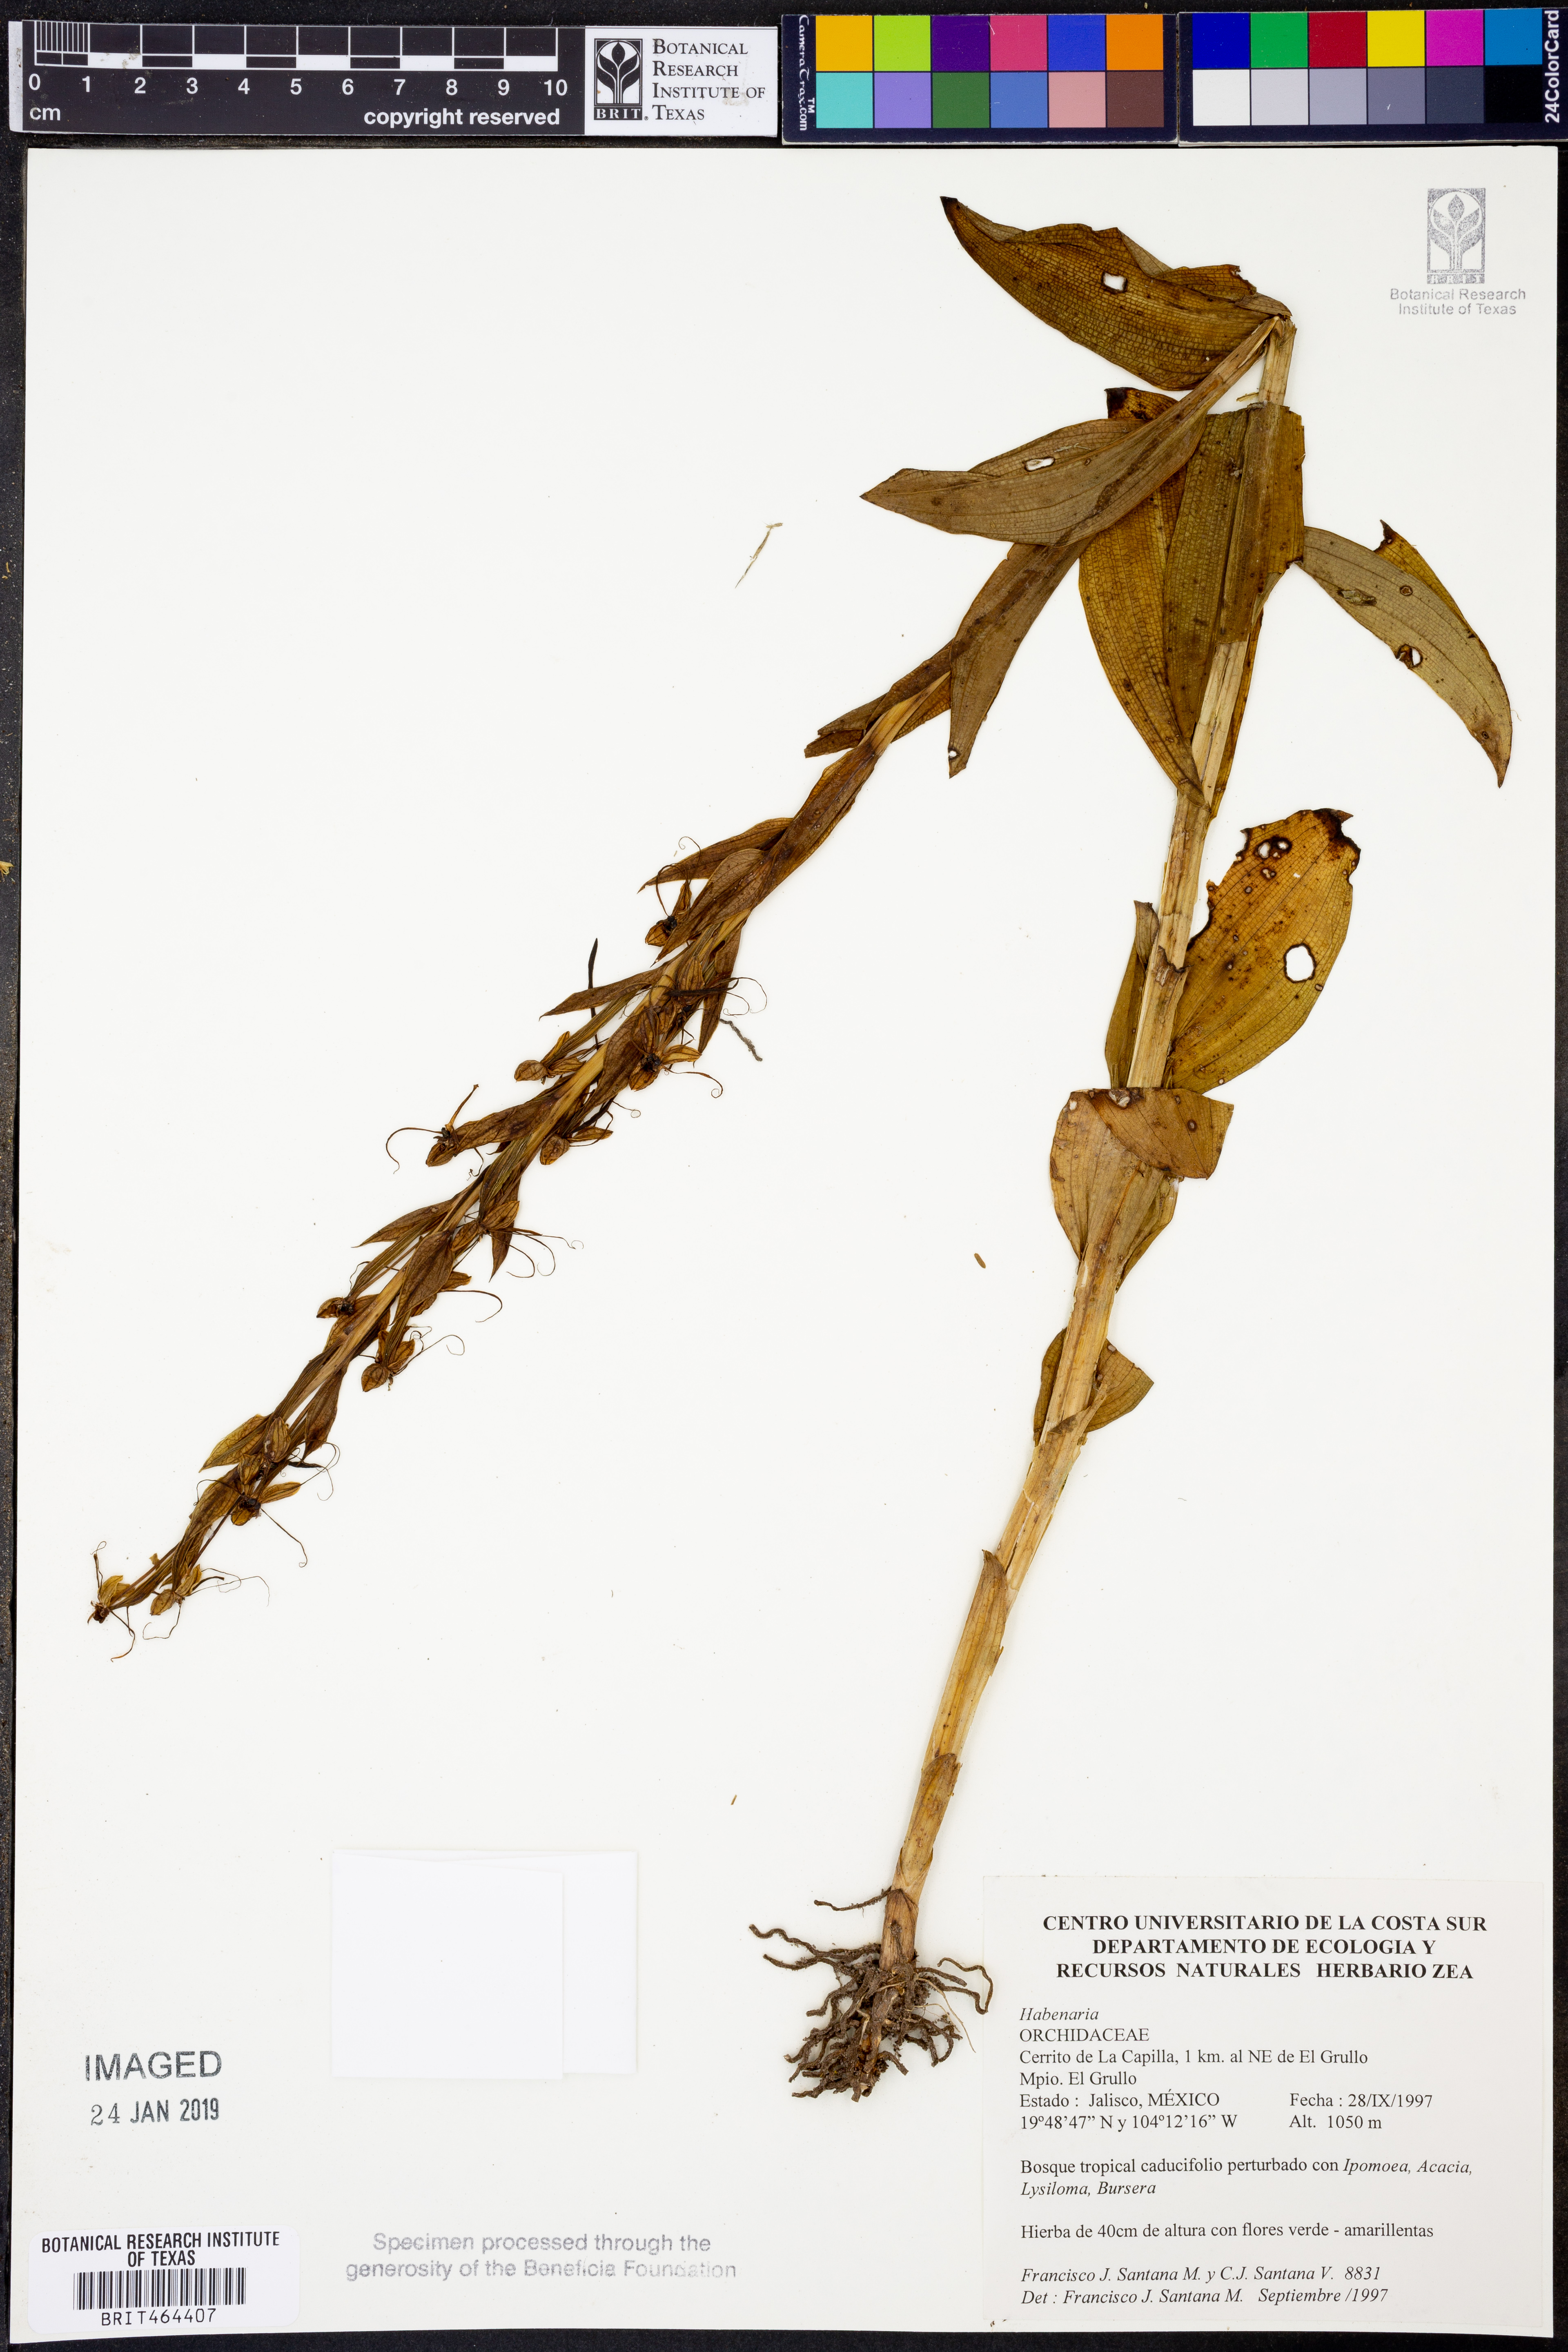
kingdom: Plantae
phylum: Tracheophyta
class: Liliopsida
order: Asparagales
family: Orchidaceae
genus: Habenaria
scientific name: Habenaria
